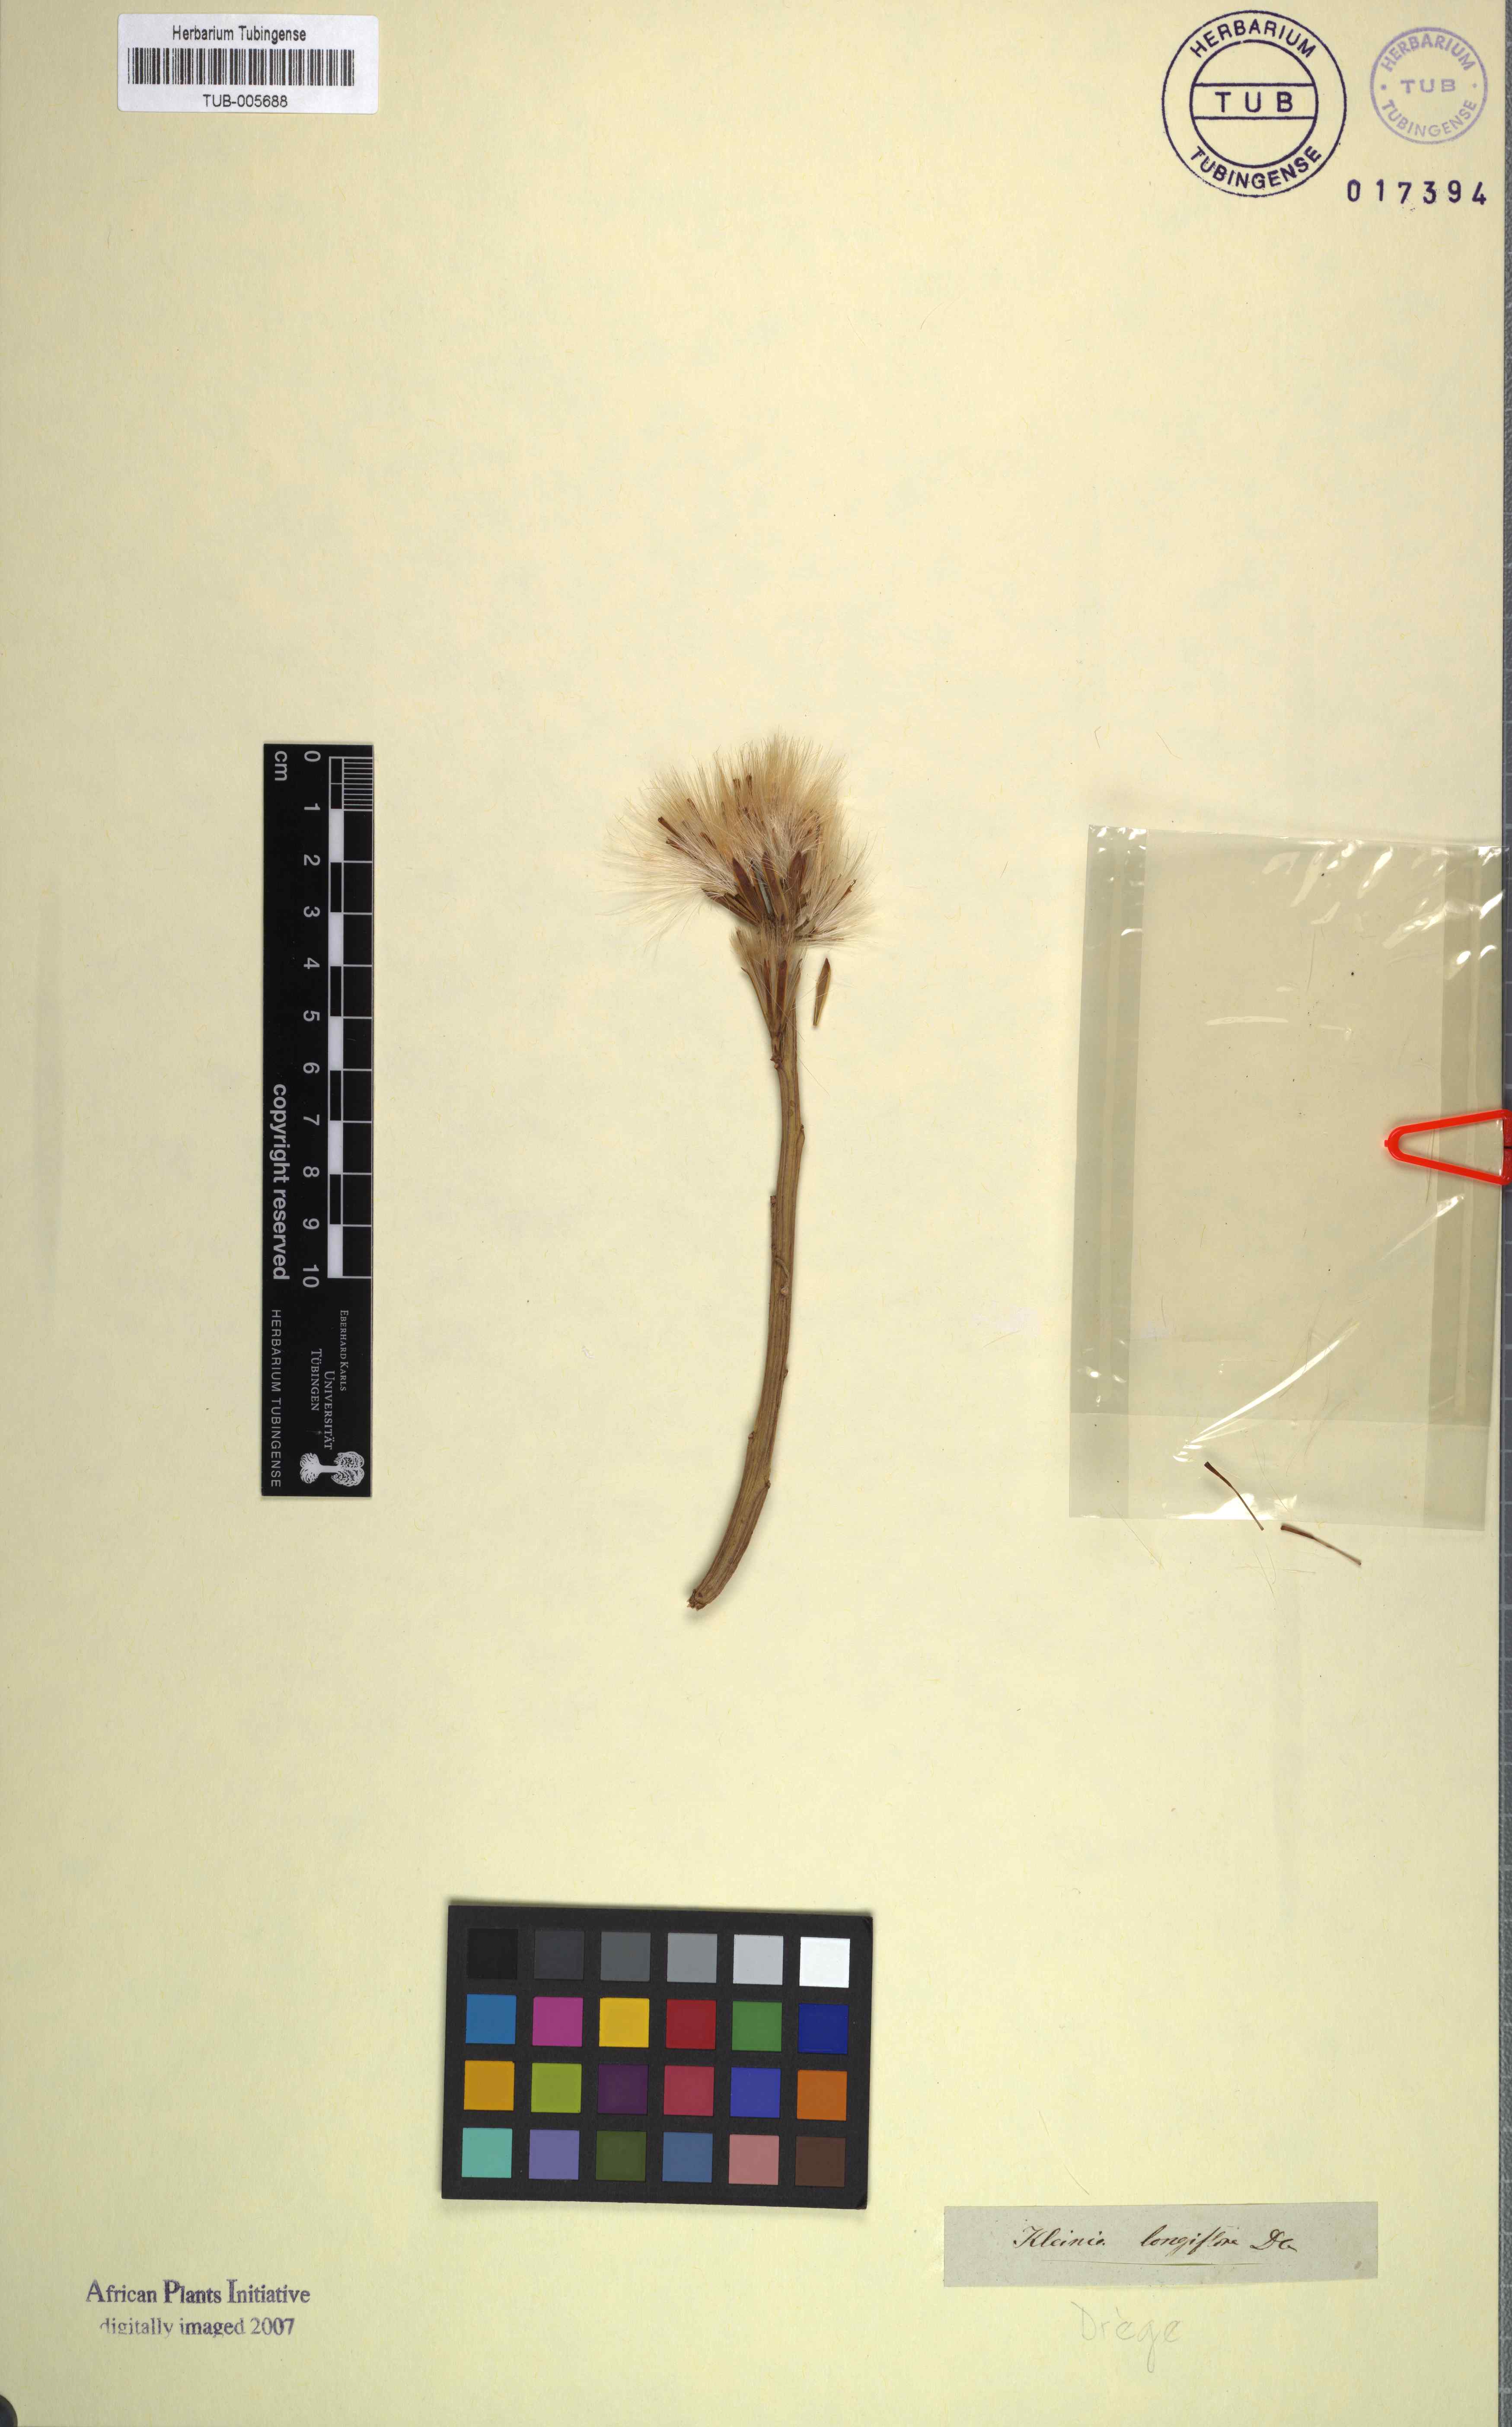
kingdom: Plantae
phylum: Tracheophyta
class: Magnoliopsida
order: Asterales
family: Asteraceae
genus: Curio
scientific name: Curio avasimontanus
